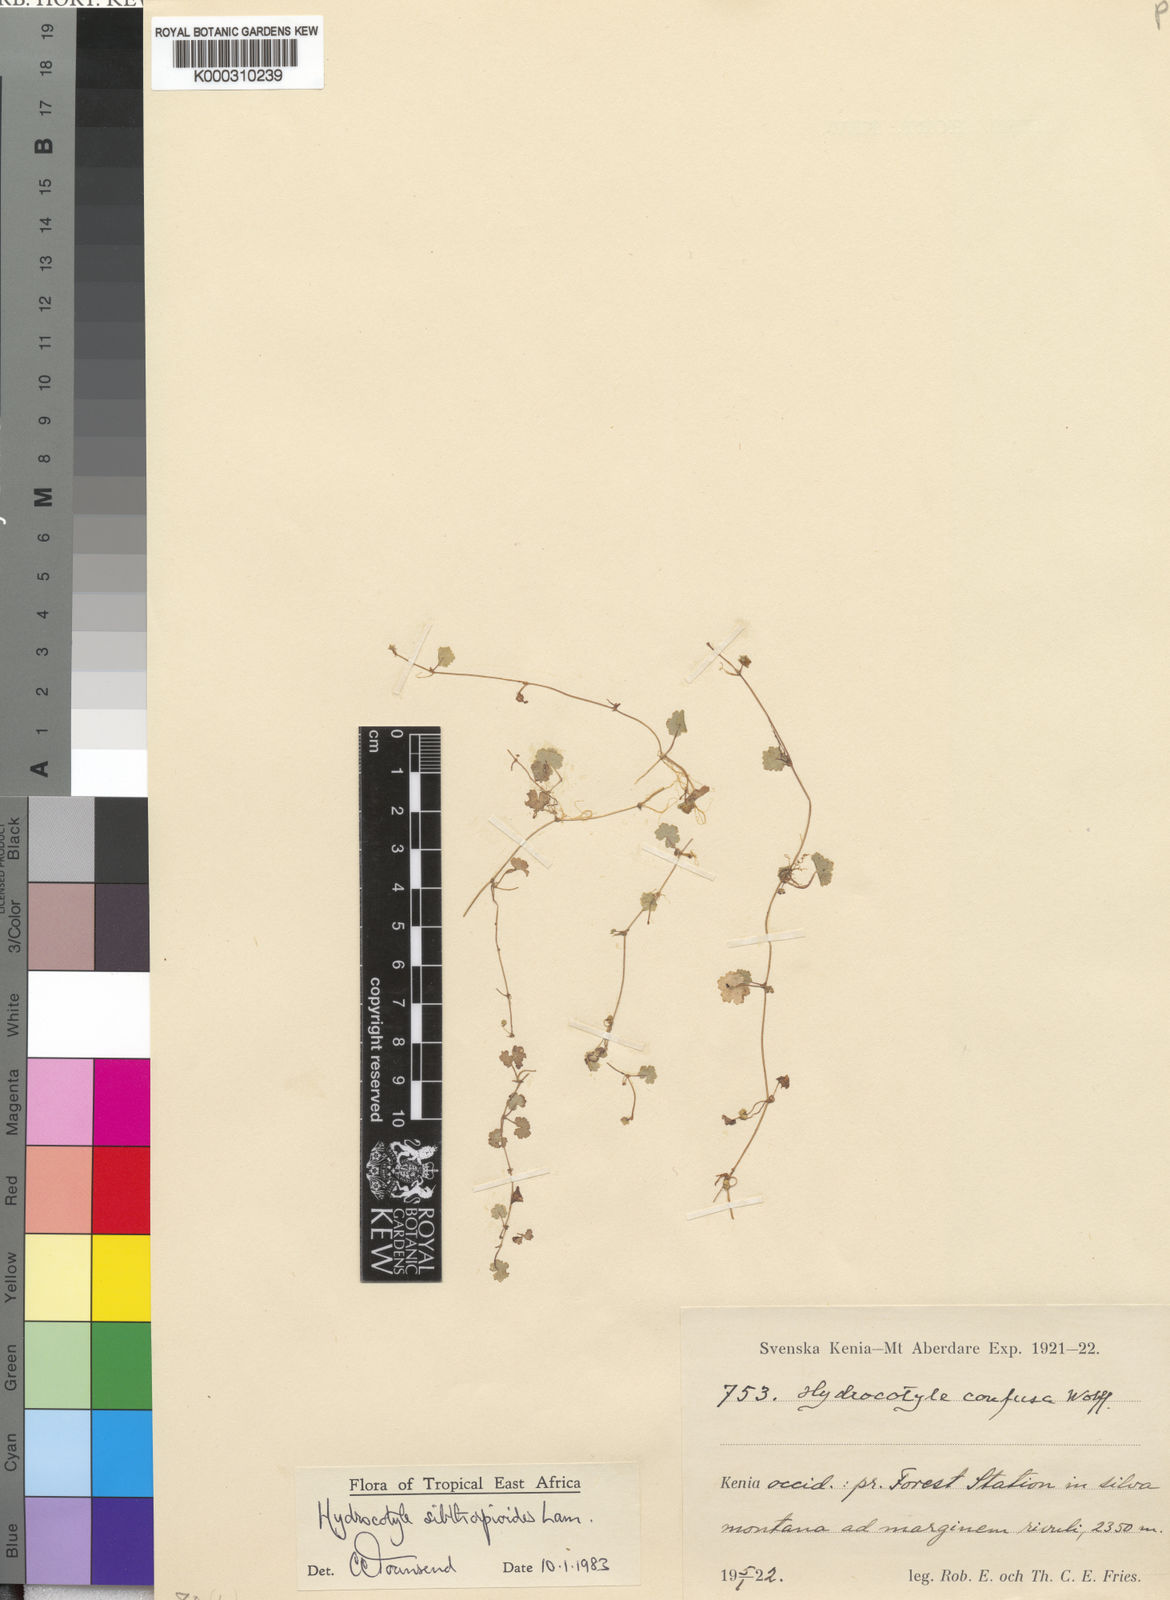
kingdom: Plantae
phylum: Tracheophyta
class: Magnoliopsida
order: Apiales
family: Araliaceae
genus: Hydrocotyle
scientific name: Hydrocotyle sibthorpioides
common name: Lawn marshpennywort
